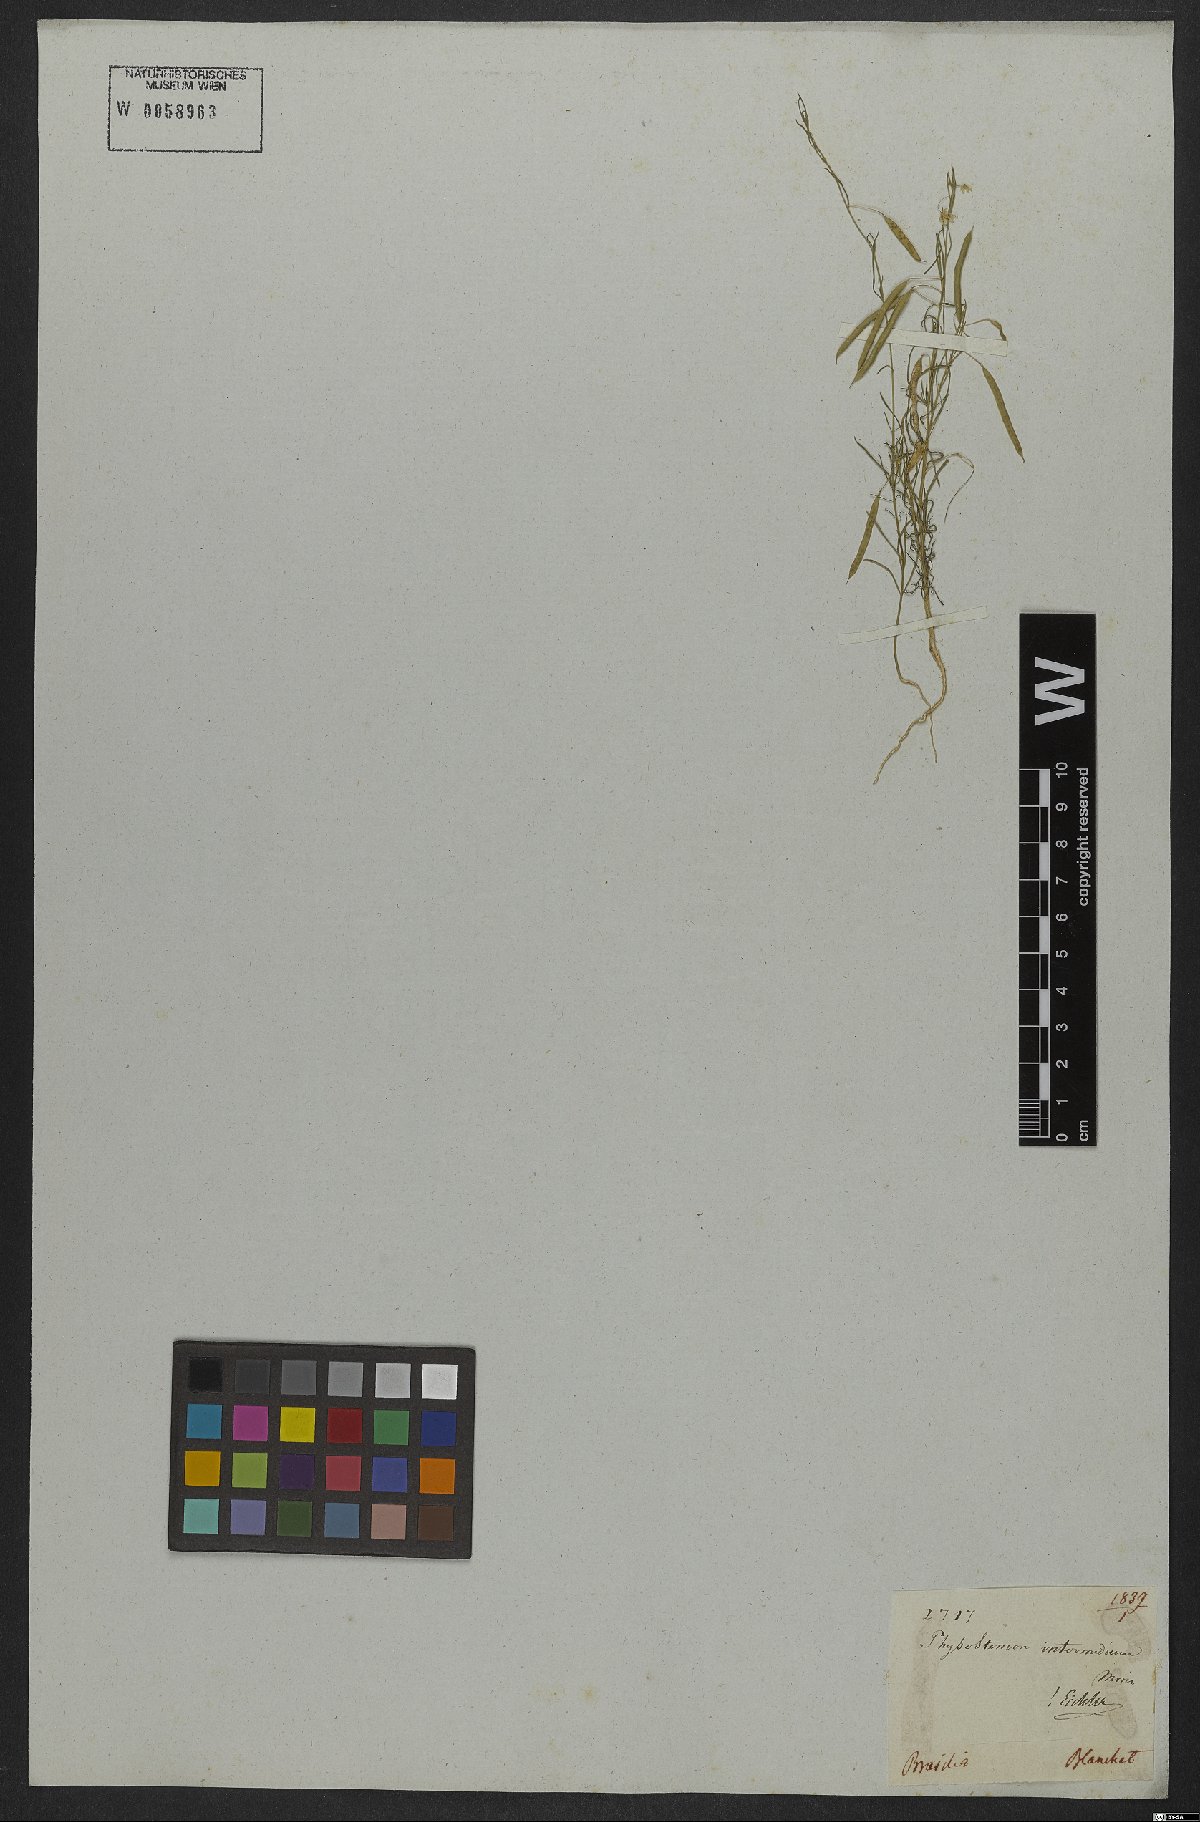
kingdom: Plantae
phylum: Tracheophyta
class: Magnoliopsida
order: Brassicales
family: Cleomaceae
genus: Andinocleome
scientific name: Andinocleome anomala
